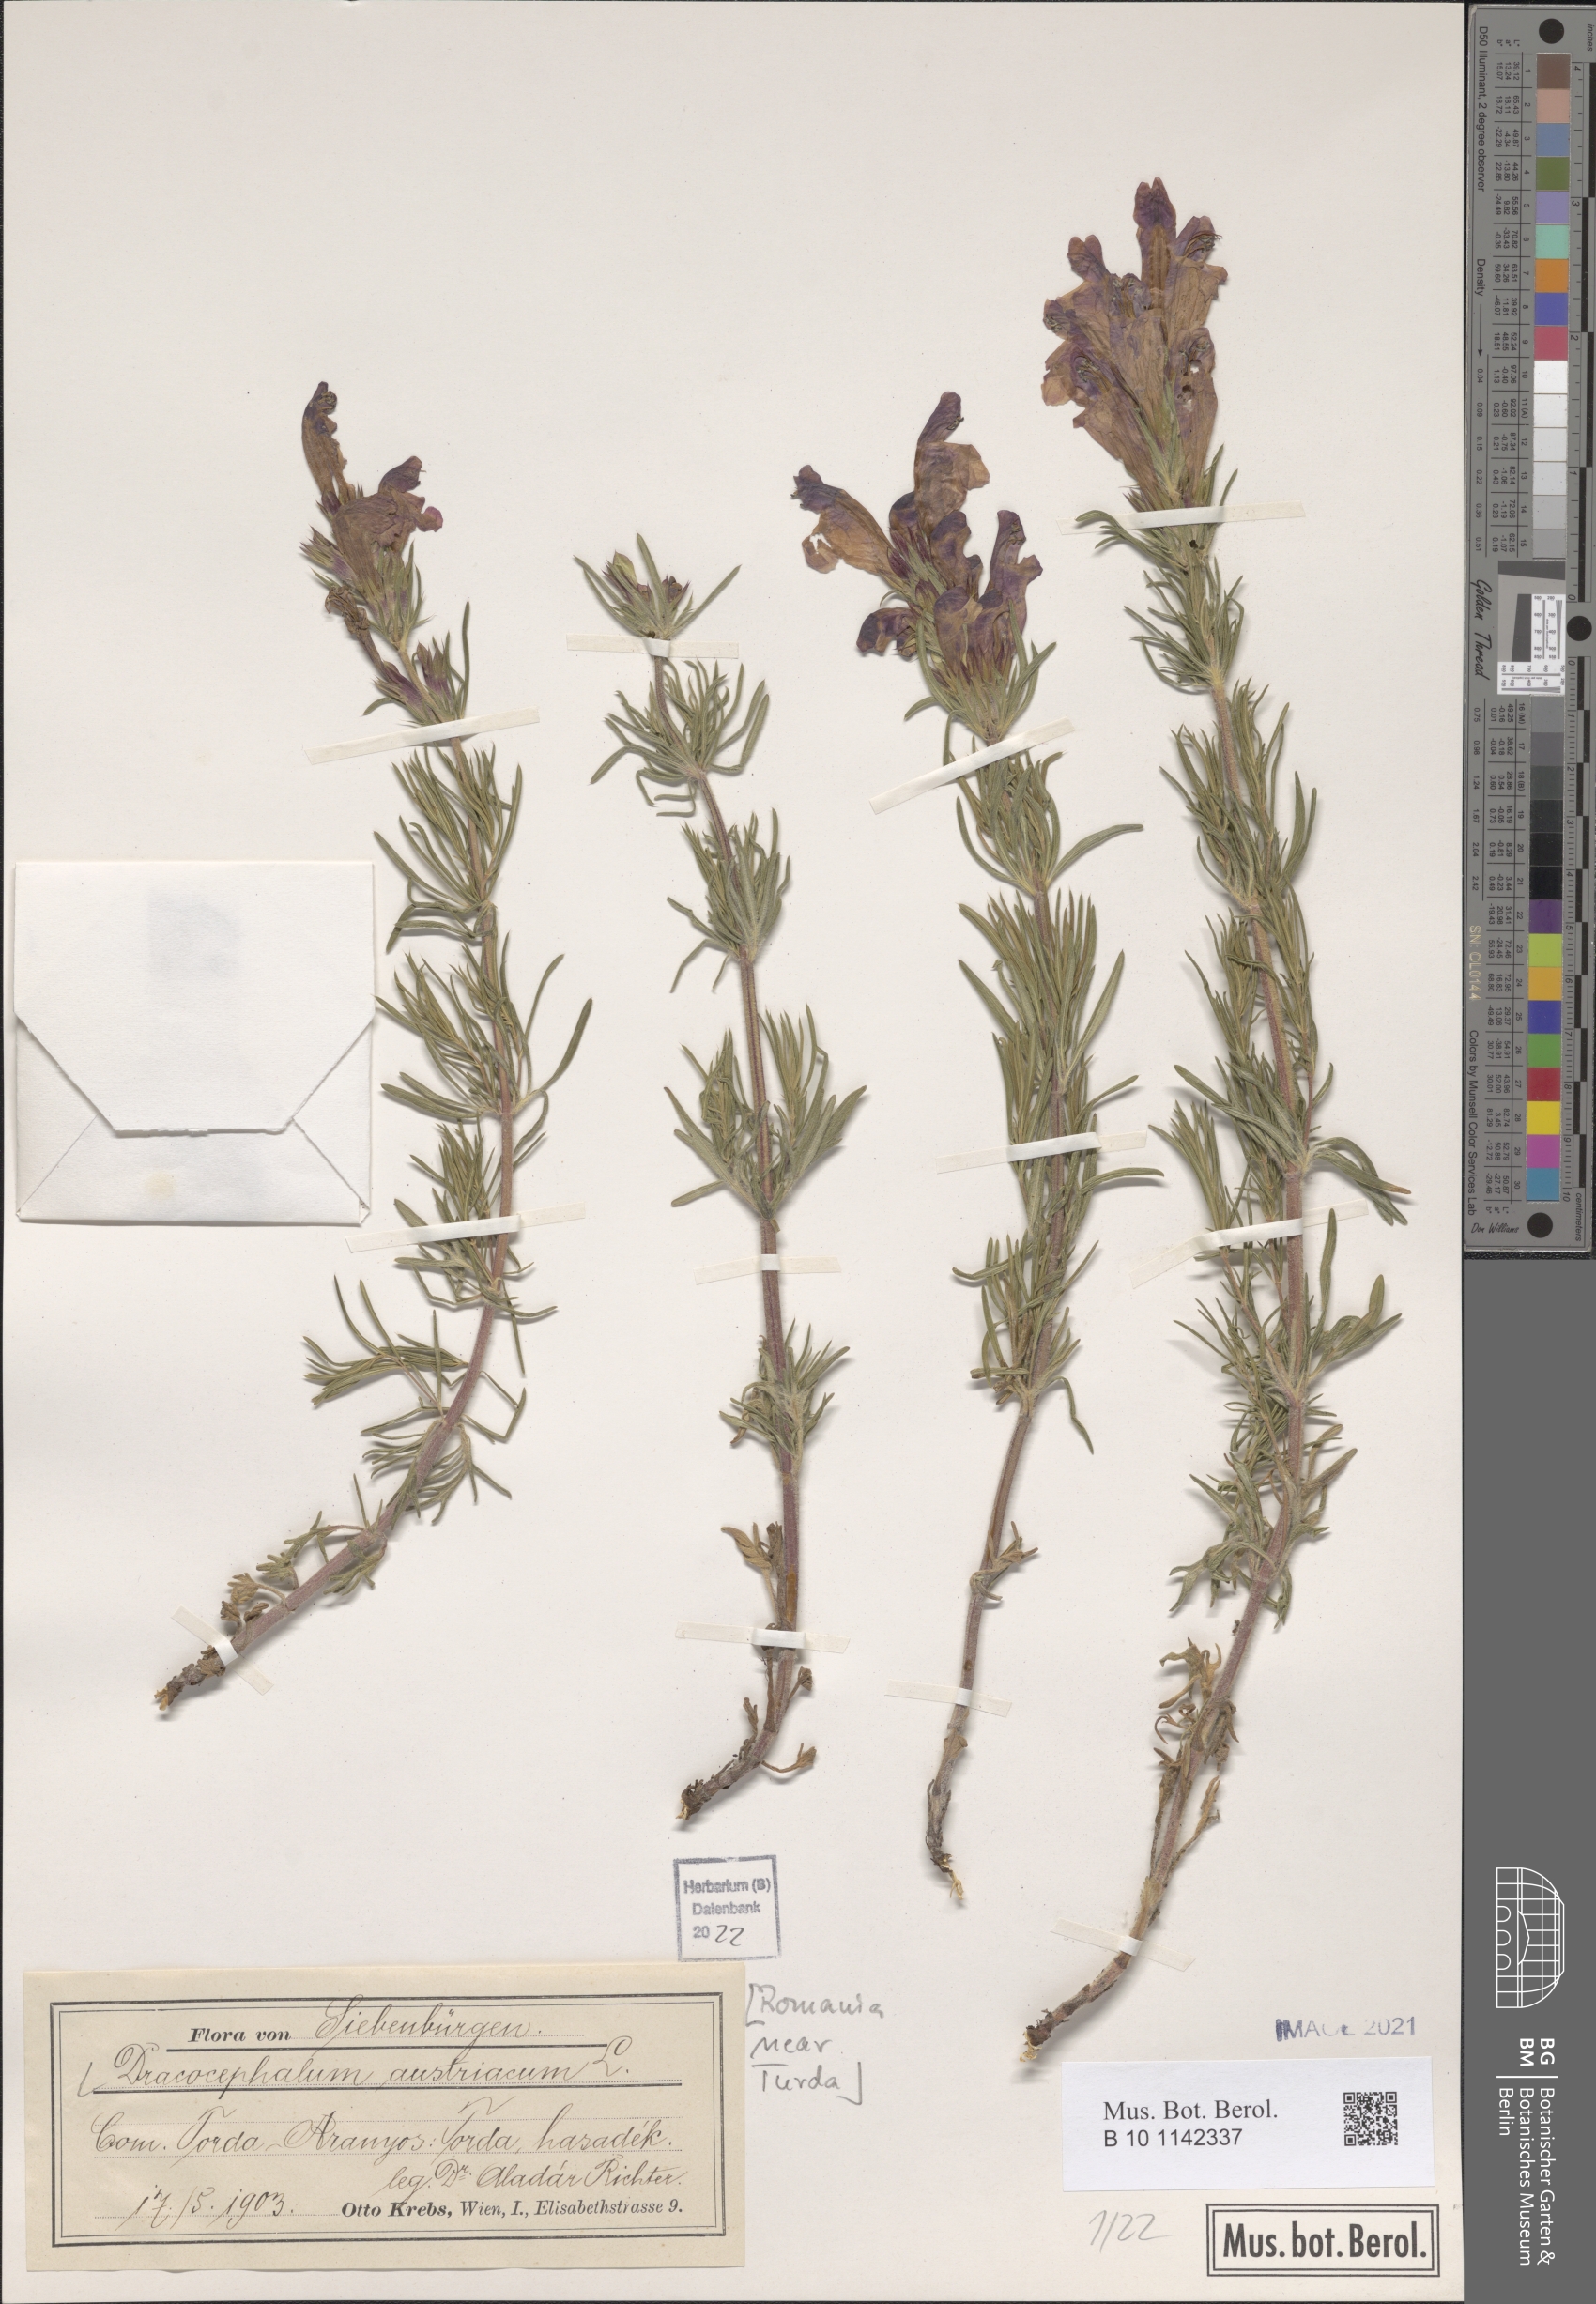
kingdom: Plantae
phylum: Tracheophyta
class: Magnoliopsida
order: Lamiales
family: Lamiaceae
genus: Dracocephalum
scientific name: Dracocephalum austriacum
